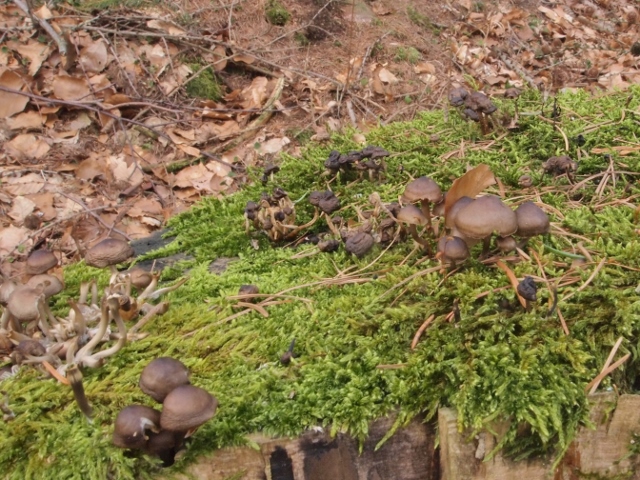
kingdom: Fungi
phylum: Basidiomycota
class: Agaricomycetes
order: Agaricales
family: Mycenaceae
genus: Mycena
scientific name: Mycena tintinnabulum
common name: vinter-huesvamp
